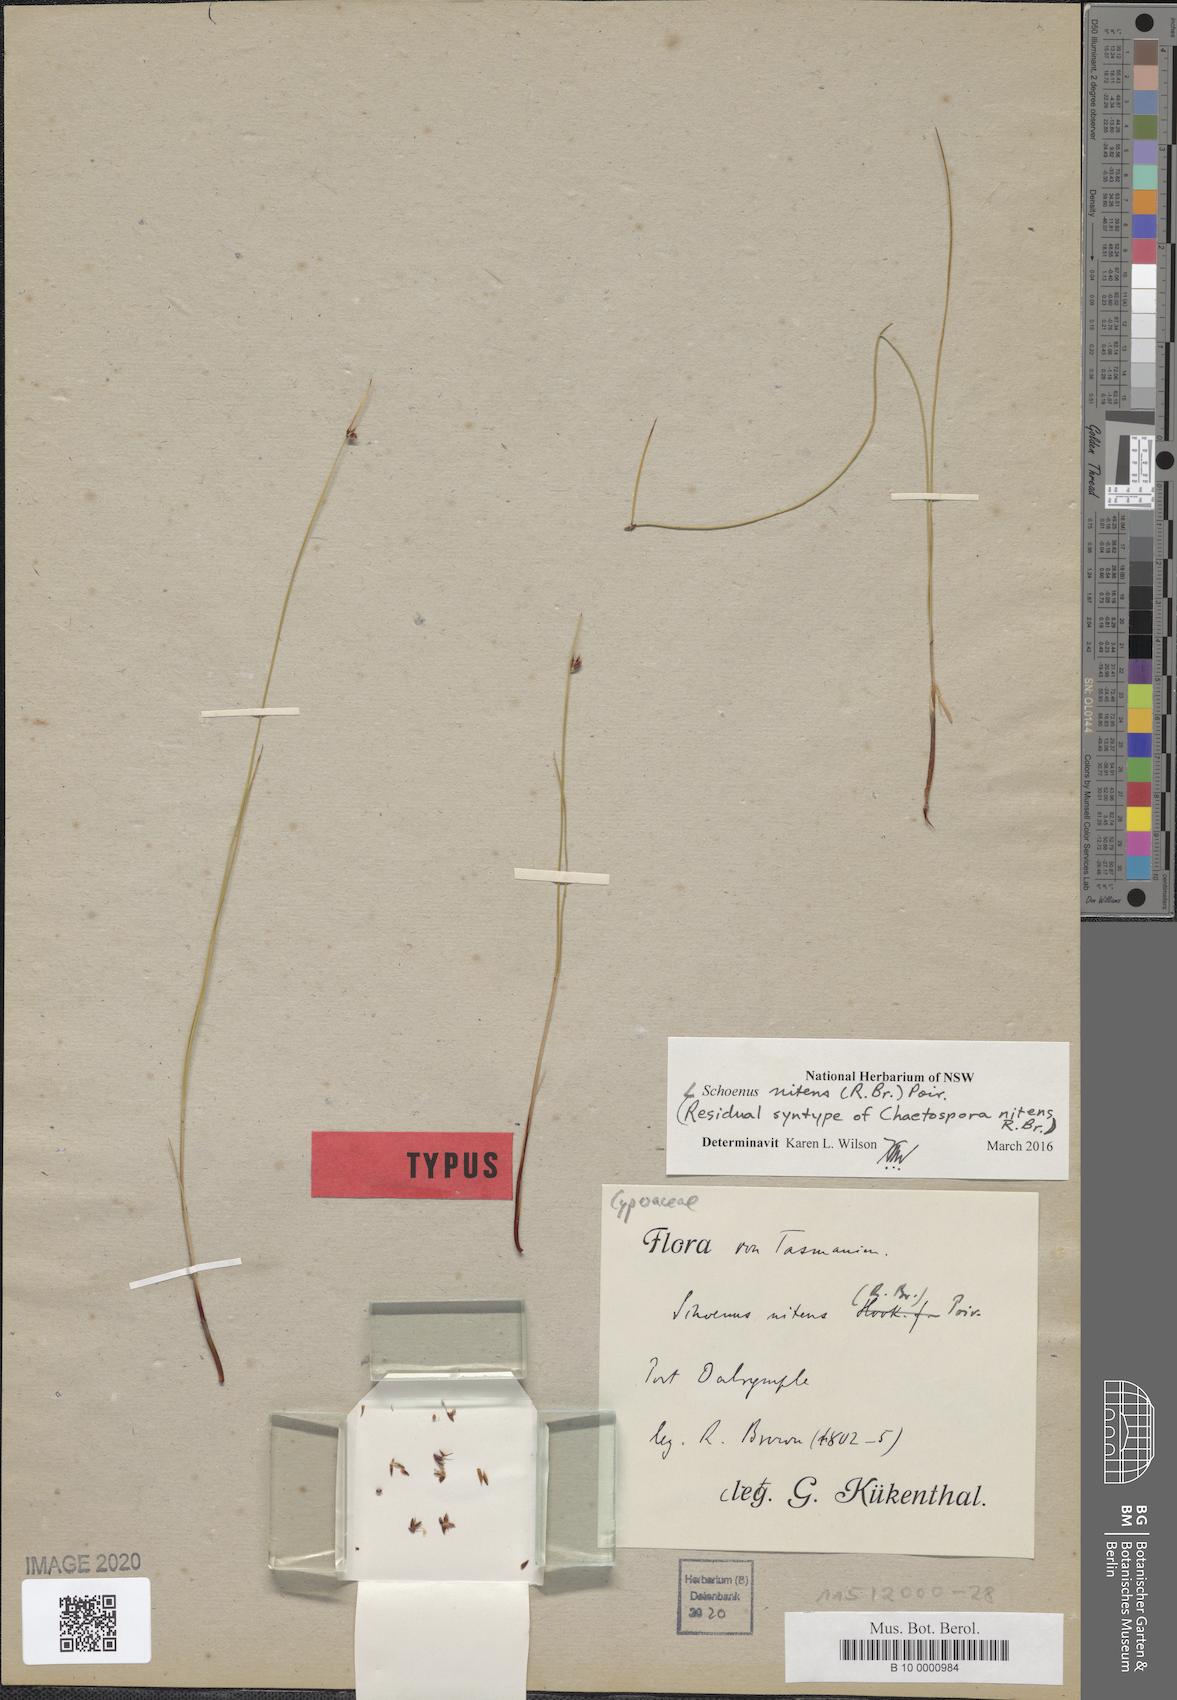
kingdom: Plantae
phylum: Tracheophyta
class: Liliopsida
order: Poales
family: Cyperaceae
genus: Schoenus
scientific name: Schoenus nitens
